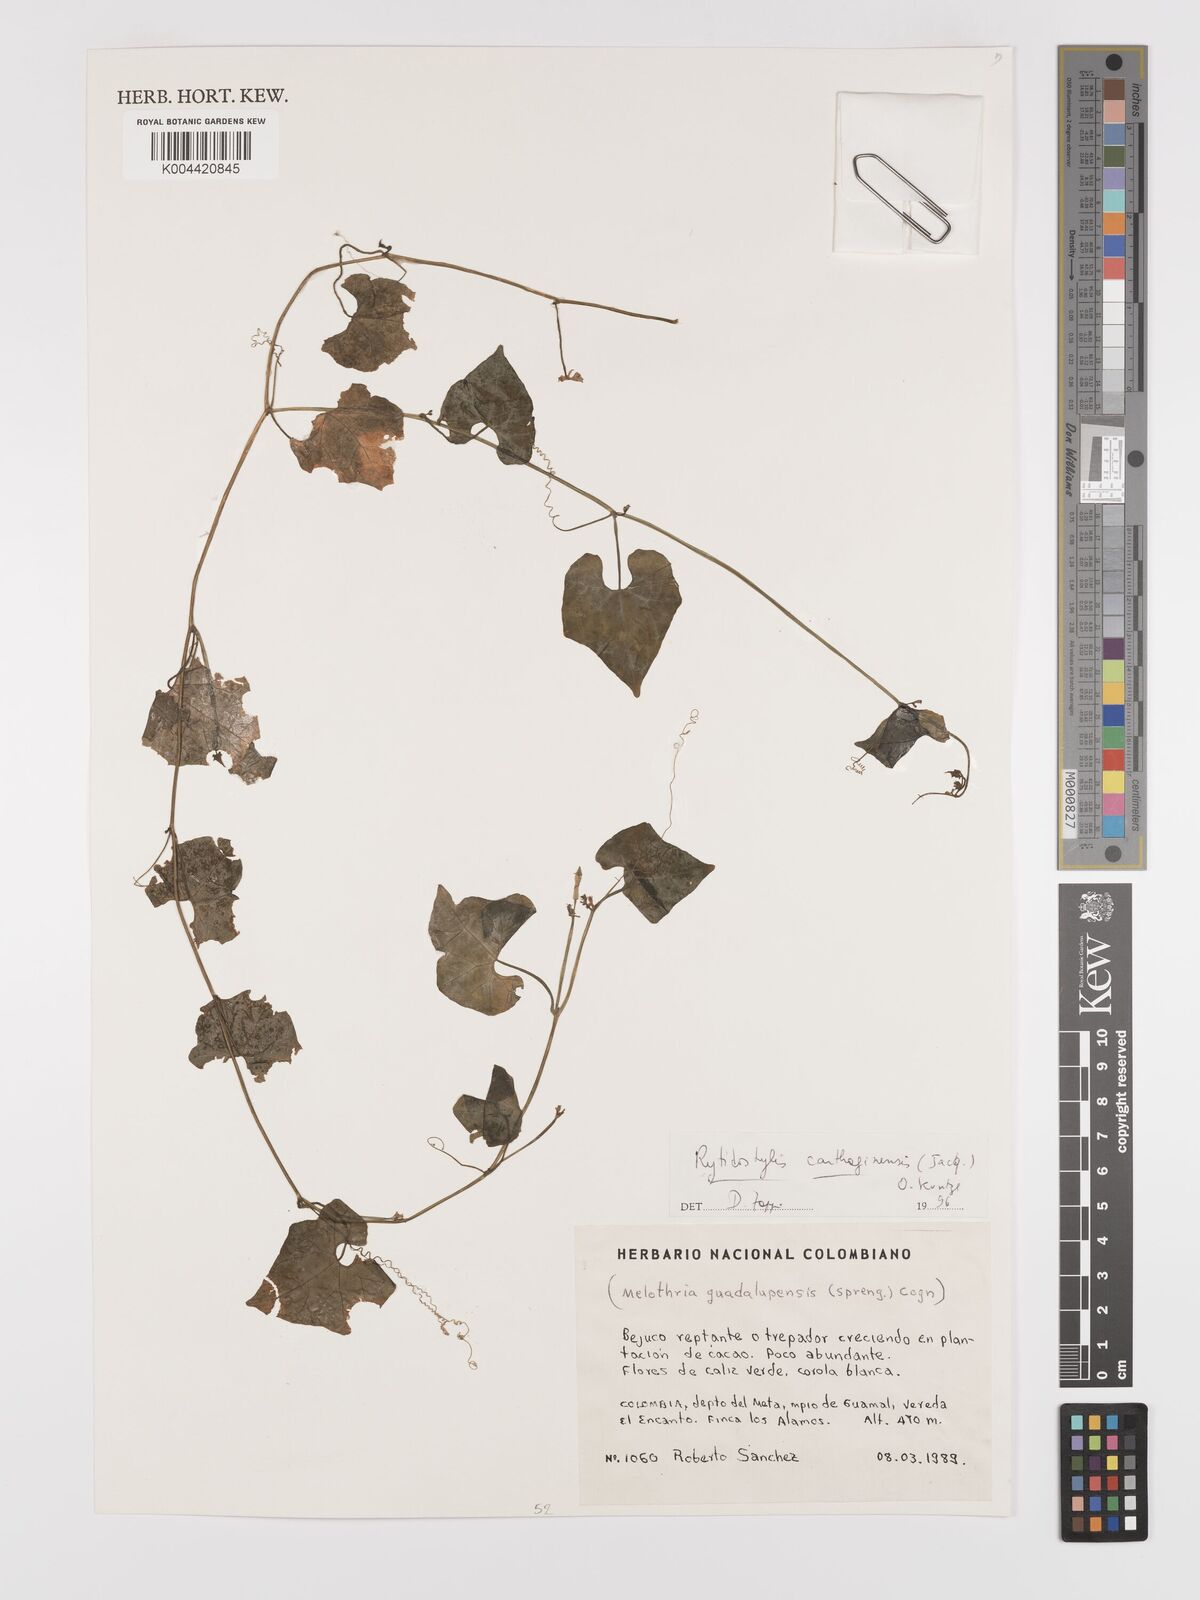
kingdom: Plantae
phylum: Tracheophyta
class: Magnoliopsida
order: Cucurbitales
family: Cucurbitaceae
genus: Cyclanthera
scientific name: Cyclanthera carthagenensis
